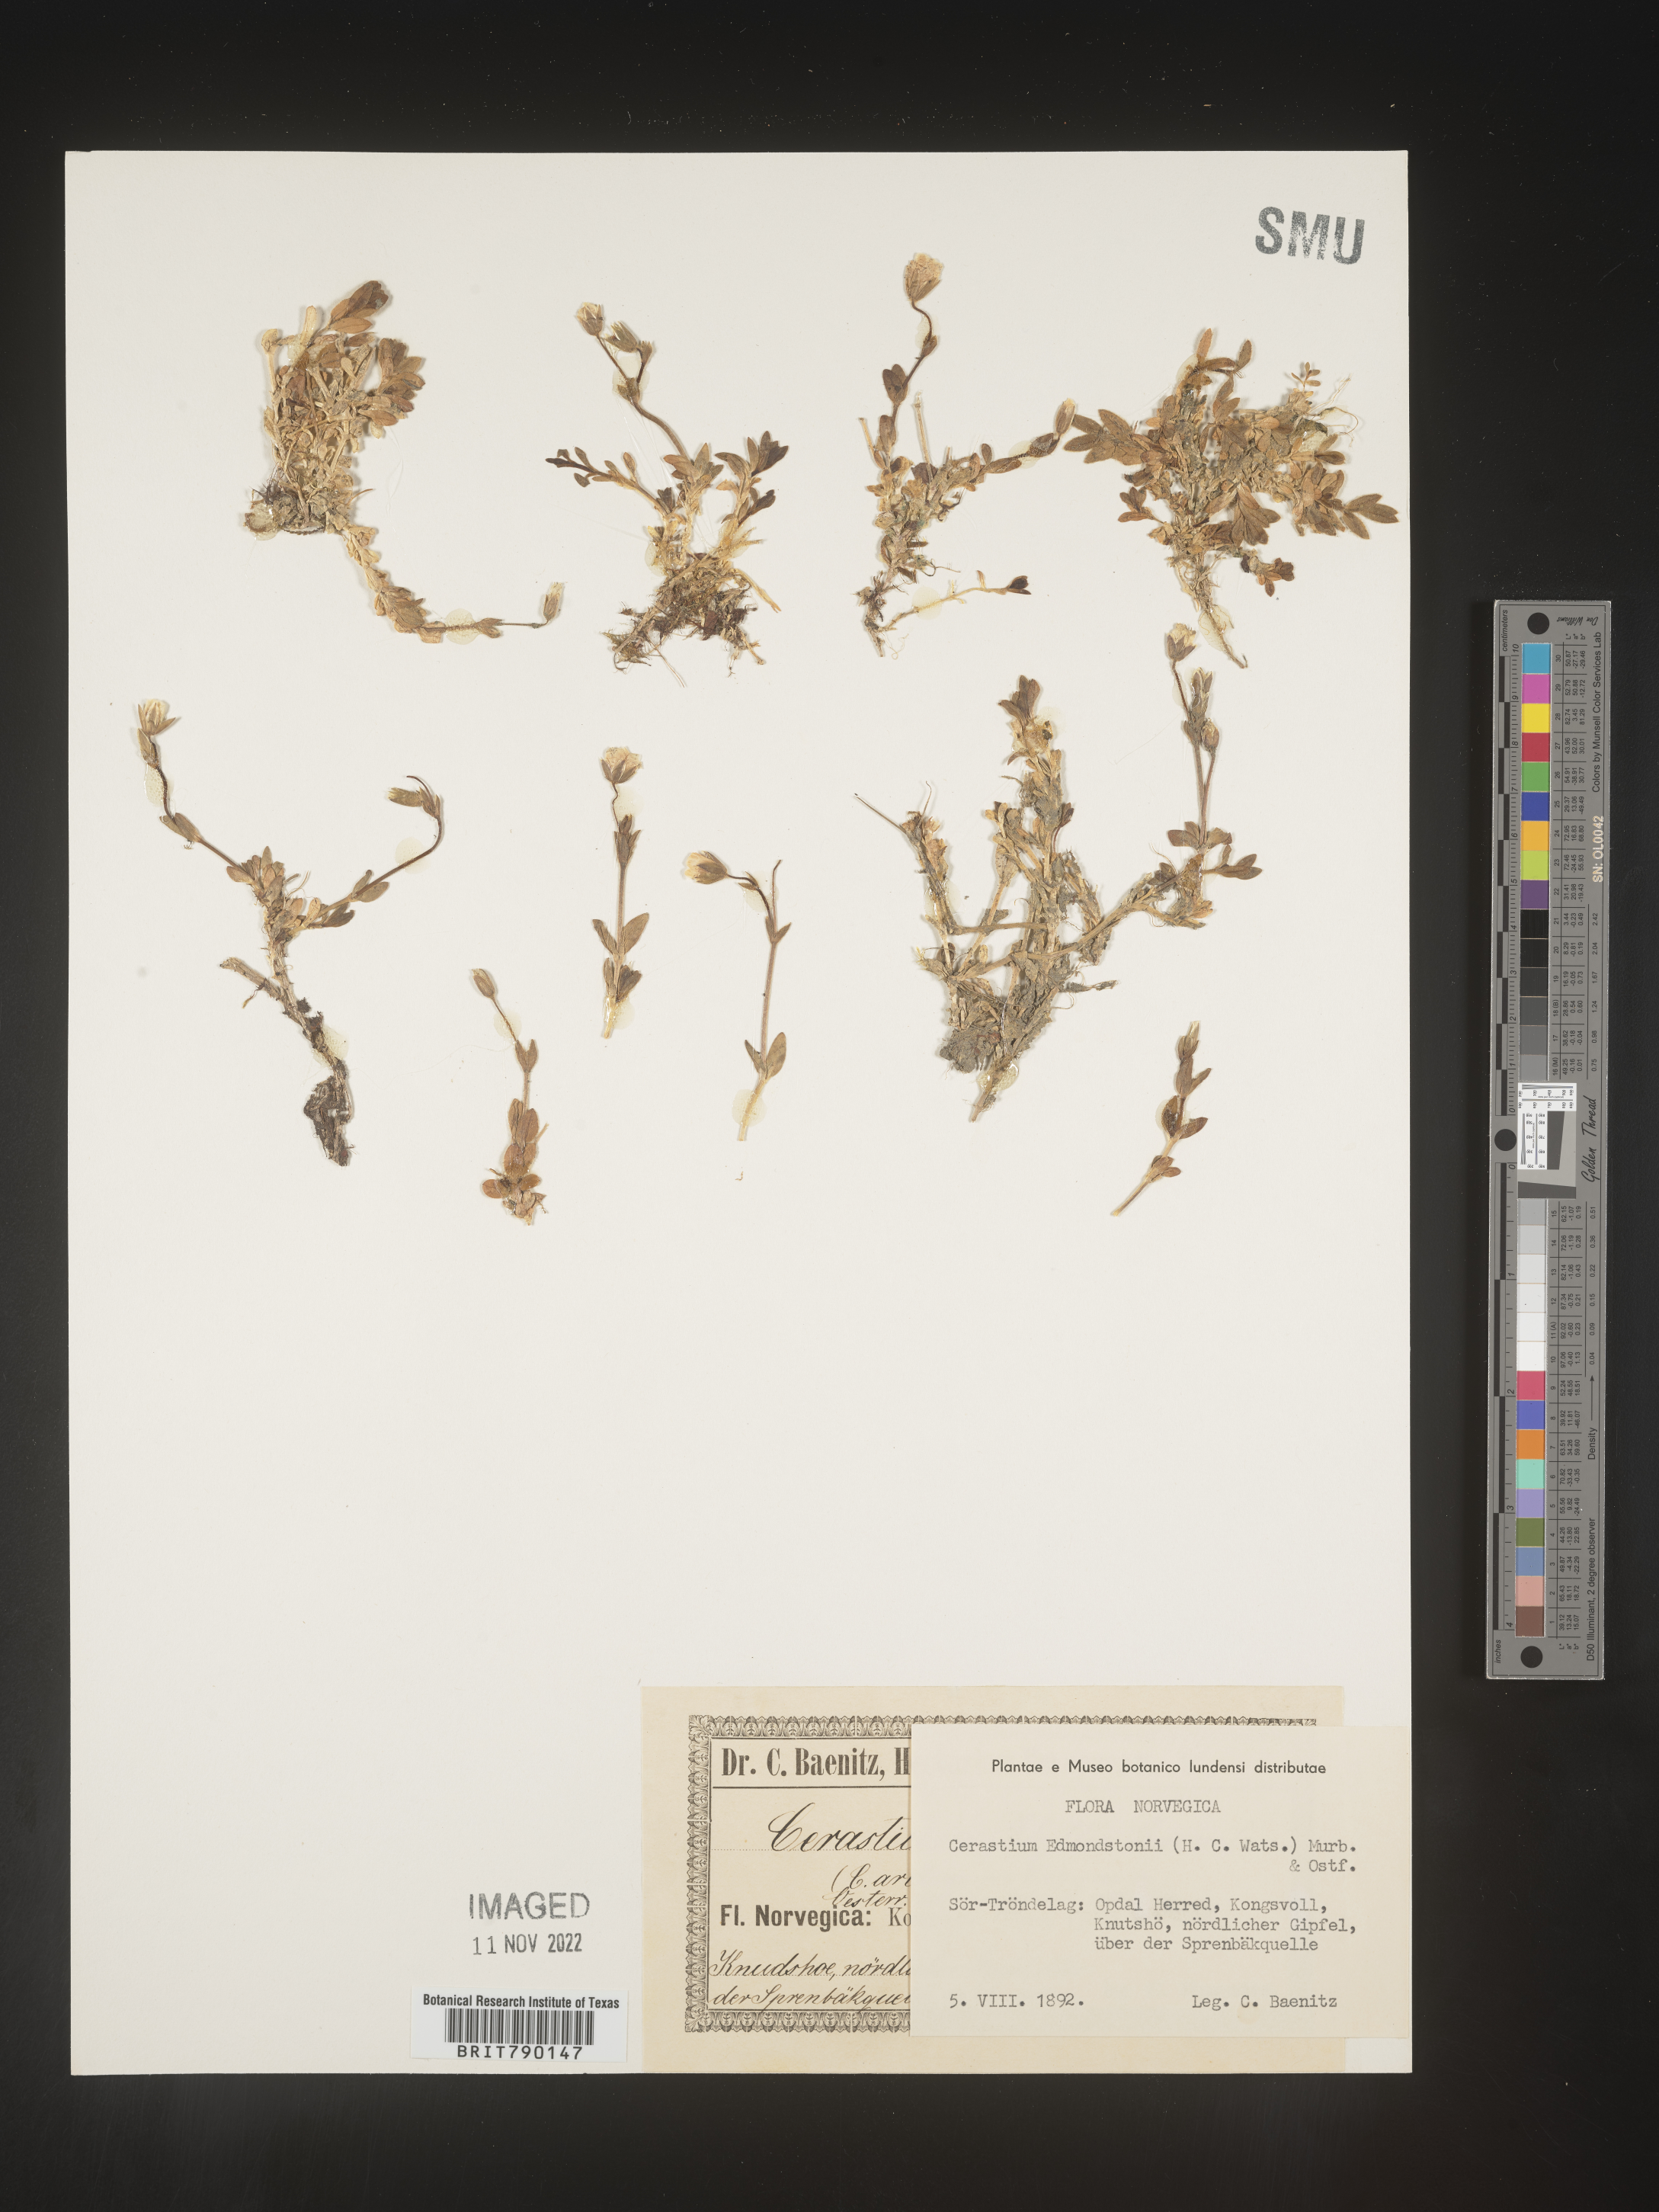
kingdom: Plantae
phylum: Tracheophyta
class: Magnoliopsida
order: Caryophyllales
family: Caryophyllaceae
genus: Cerastium
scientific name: Cerastium
